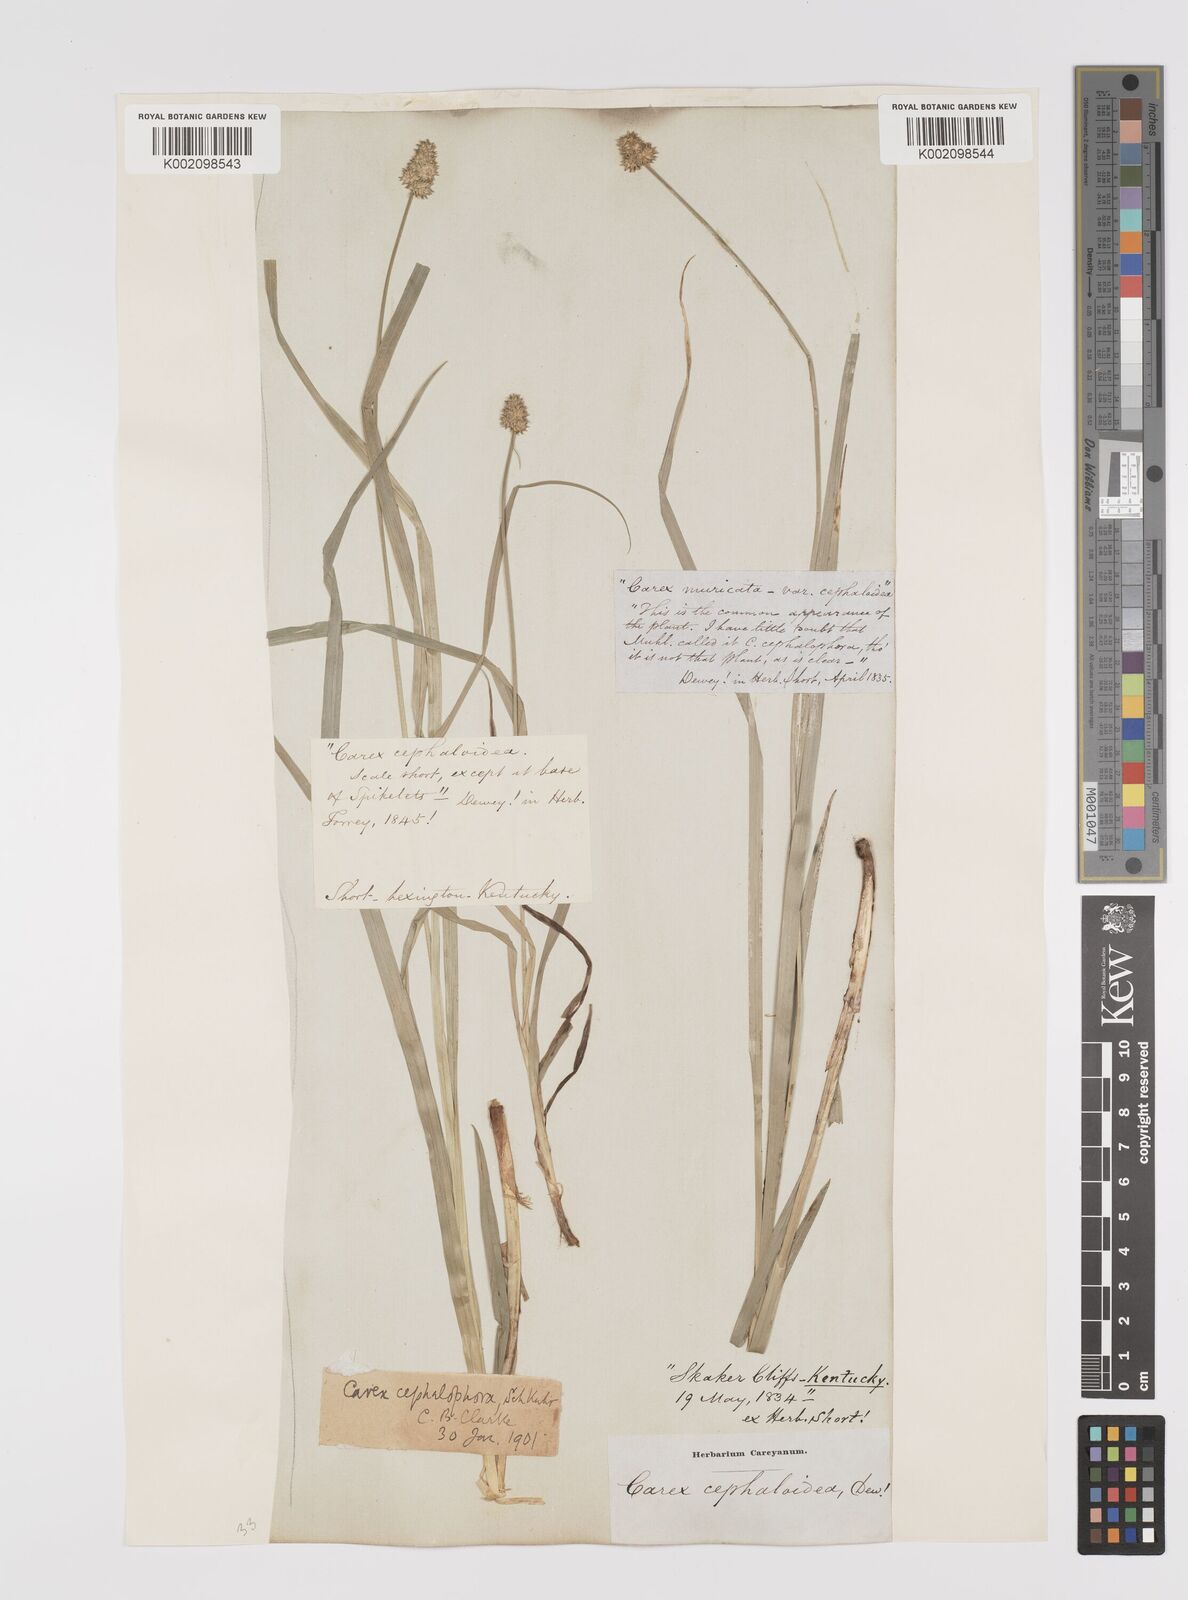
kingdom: Plantae
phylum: Tracheophyta
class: Liliopsida
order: Poales
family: Cyperaceae
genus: Carex
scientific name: Carex cephalophora
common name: Oval-headed sedge
